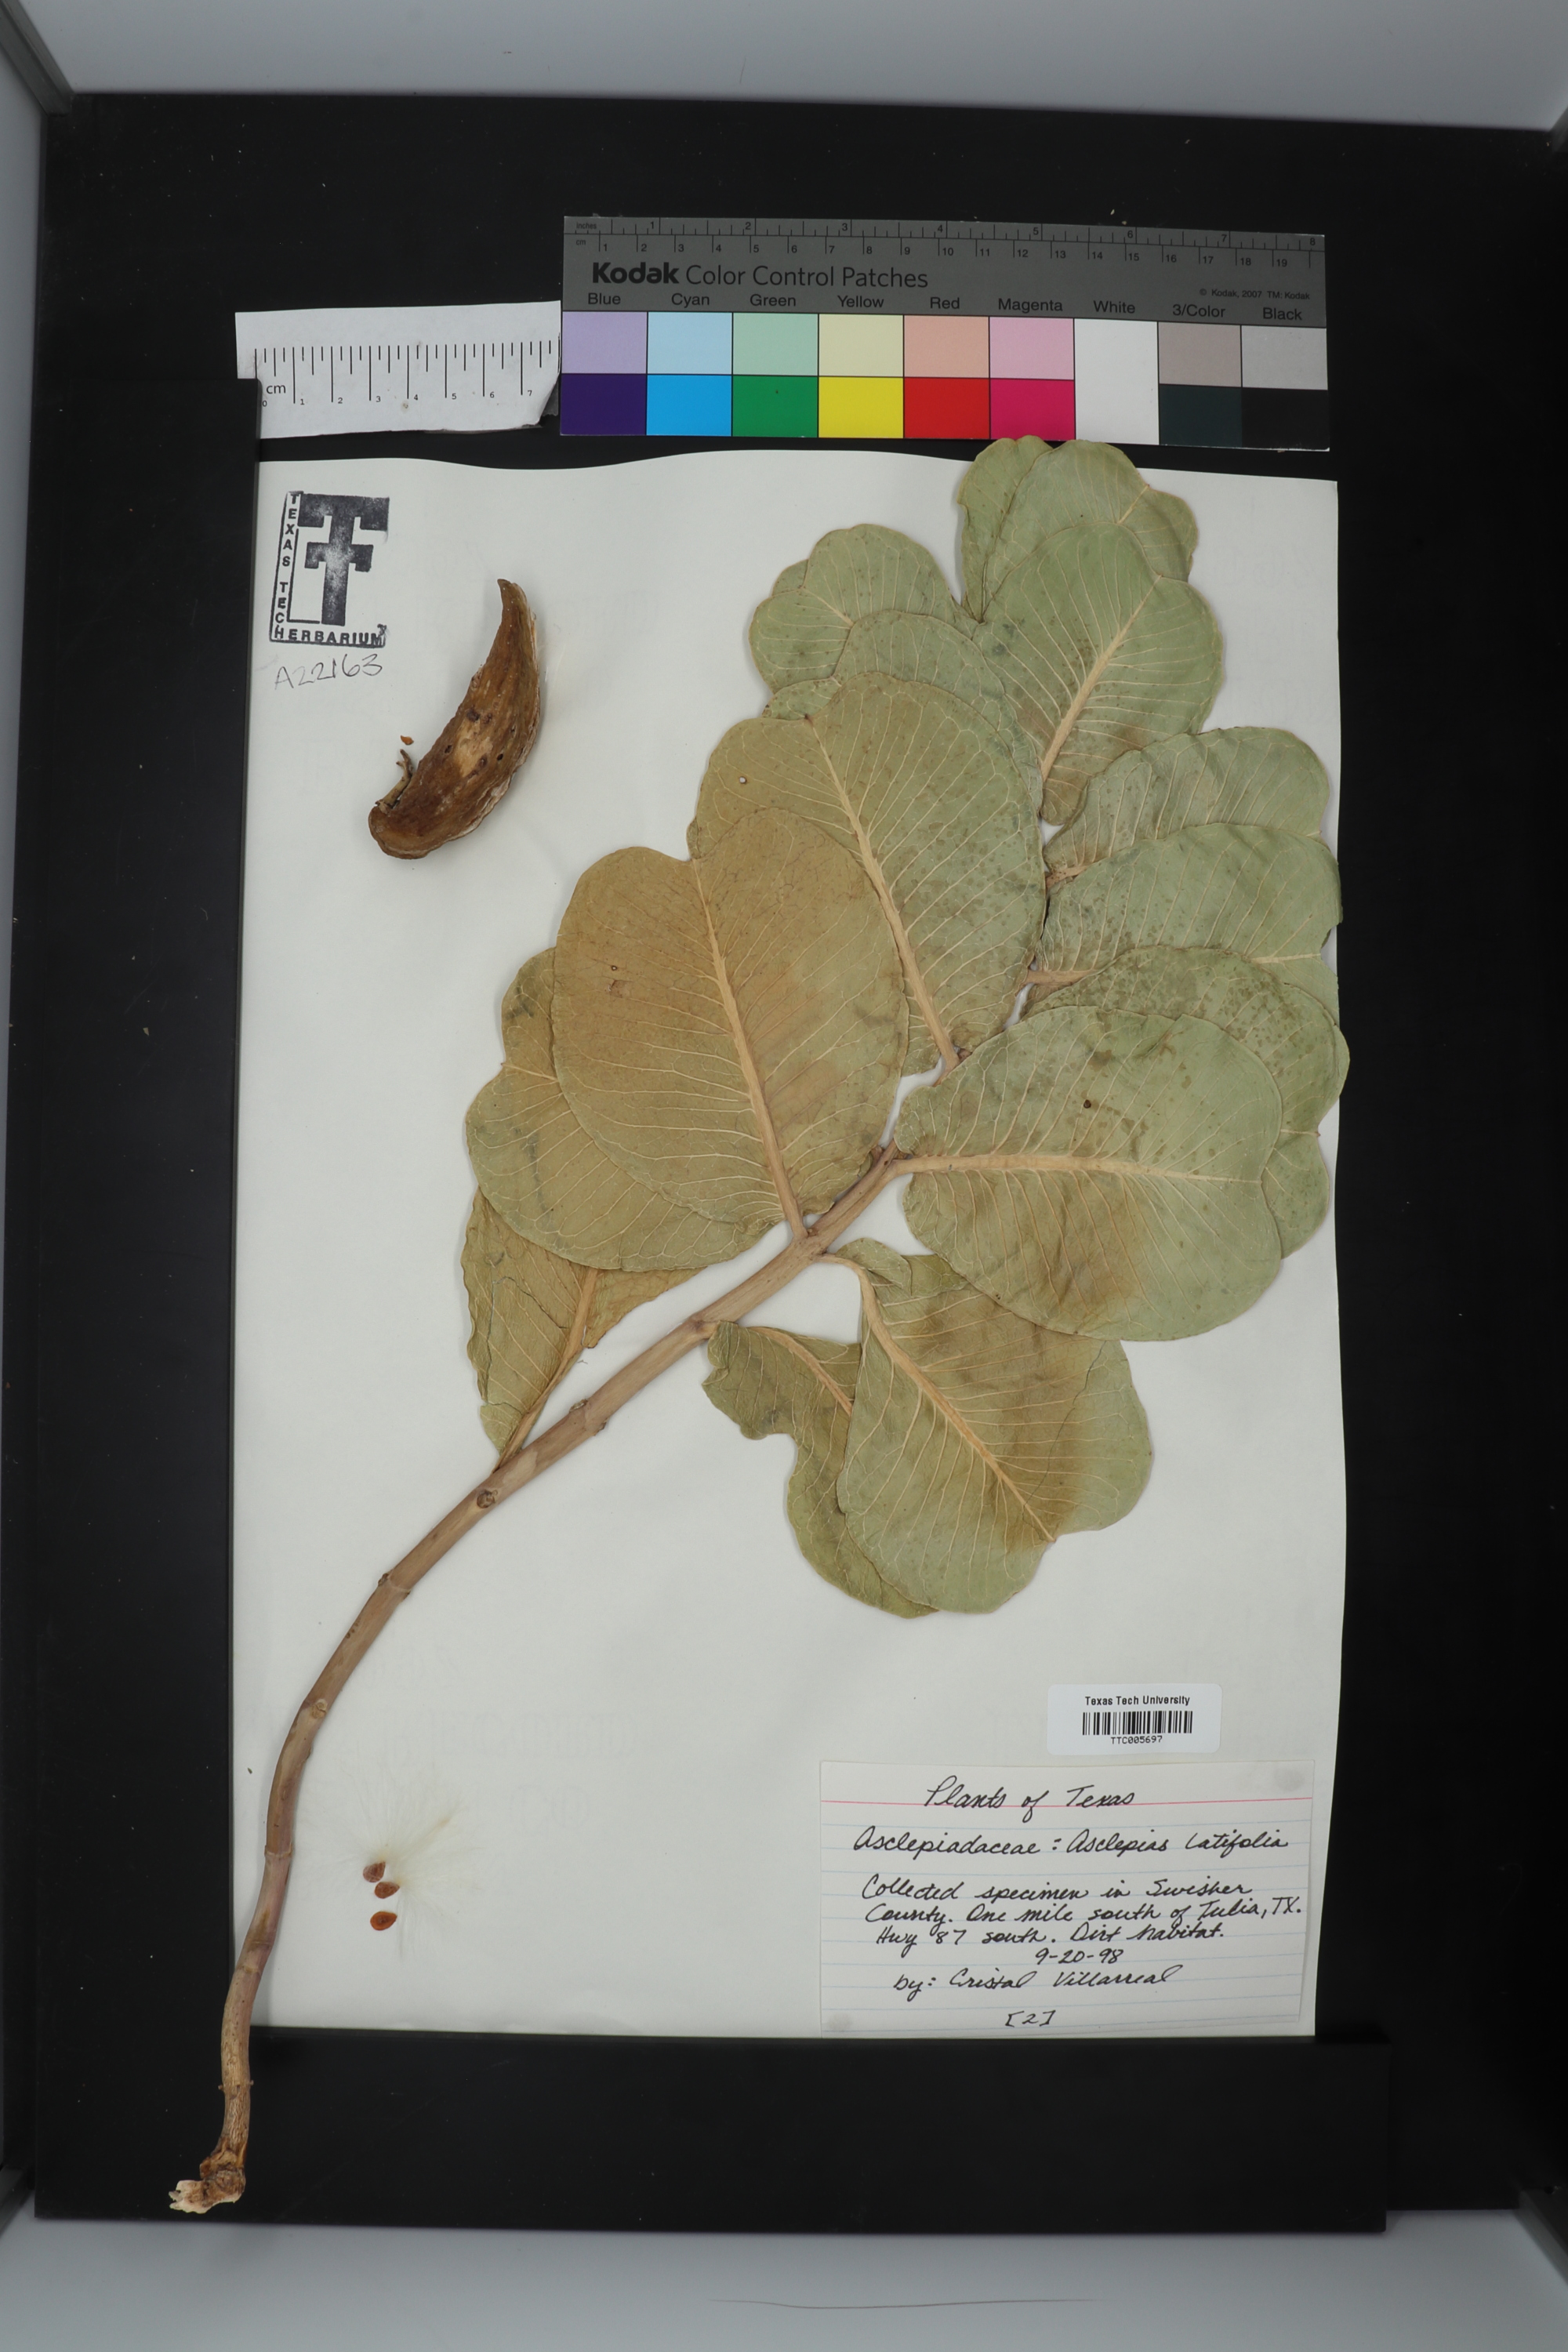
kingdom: Plantae
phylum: Tracheophyta
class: Magnoliopsida
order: Gentianales
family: Apocynaceae
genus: Asclepias
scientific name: Asclepias latifolia
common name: Broadleaf milkweed
